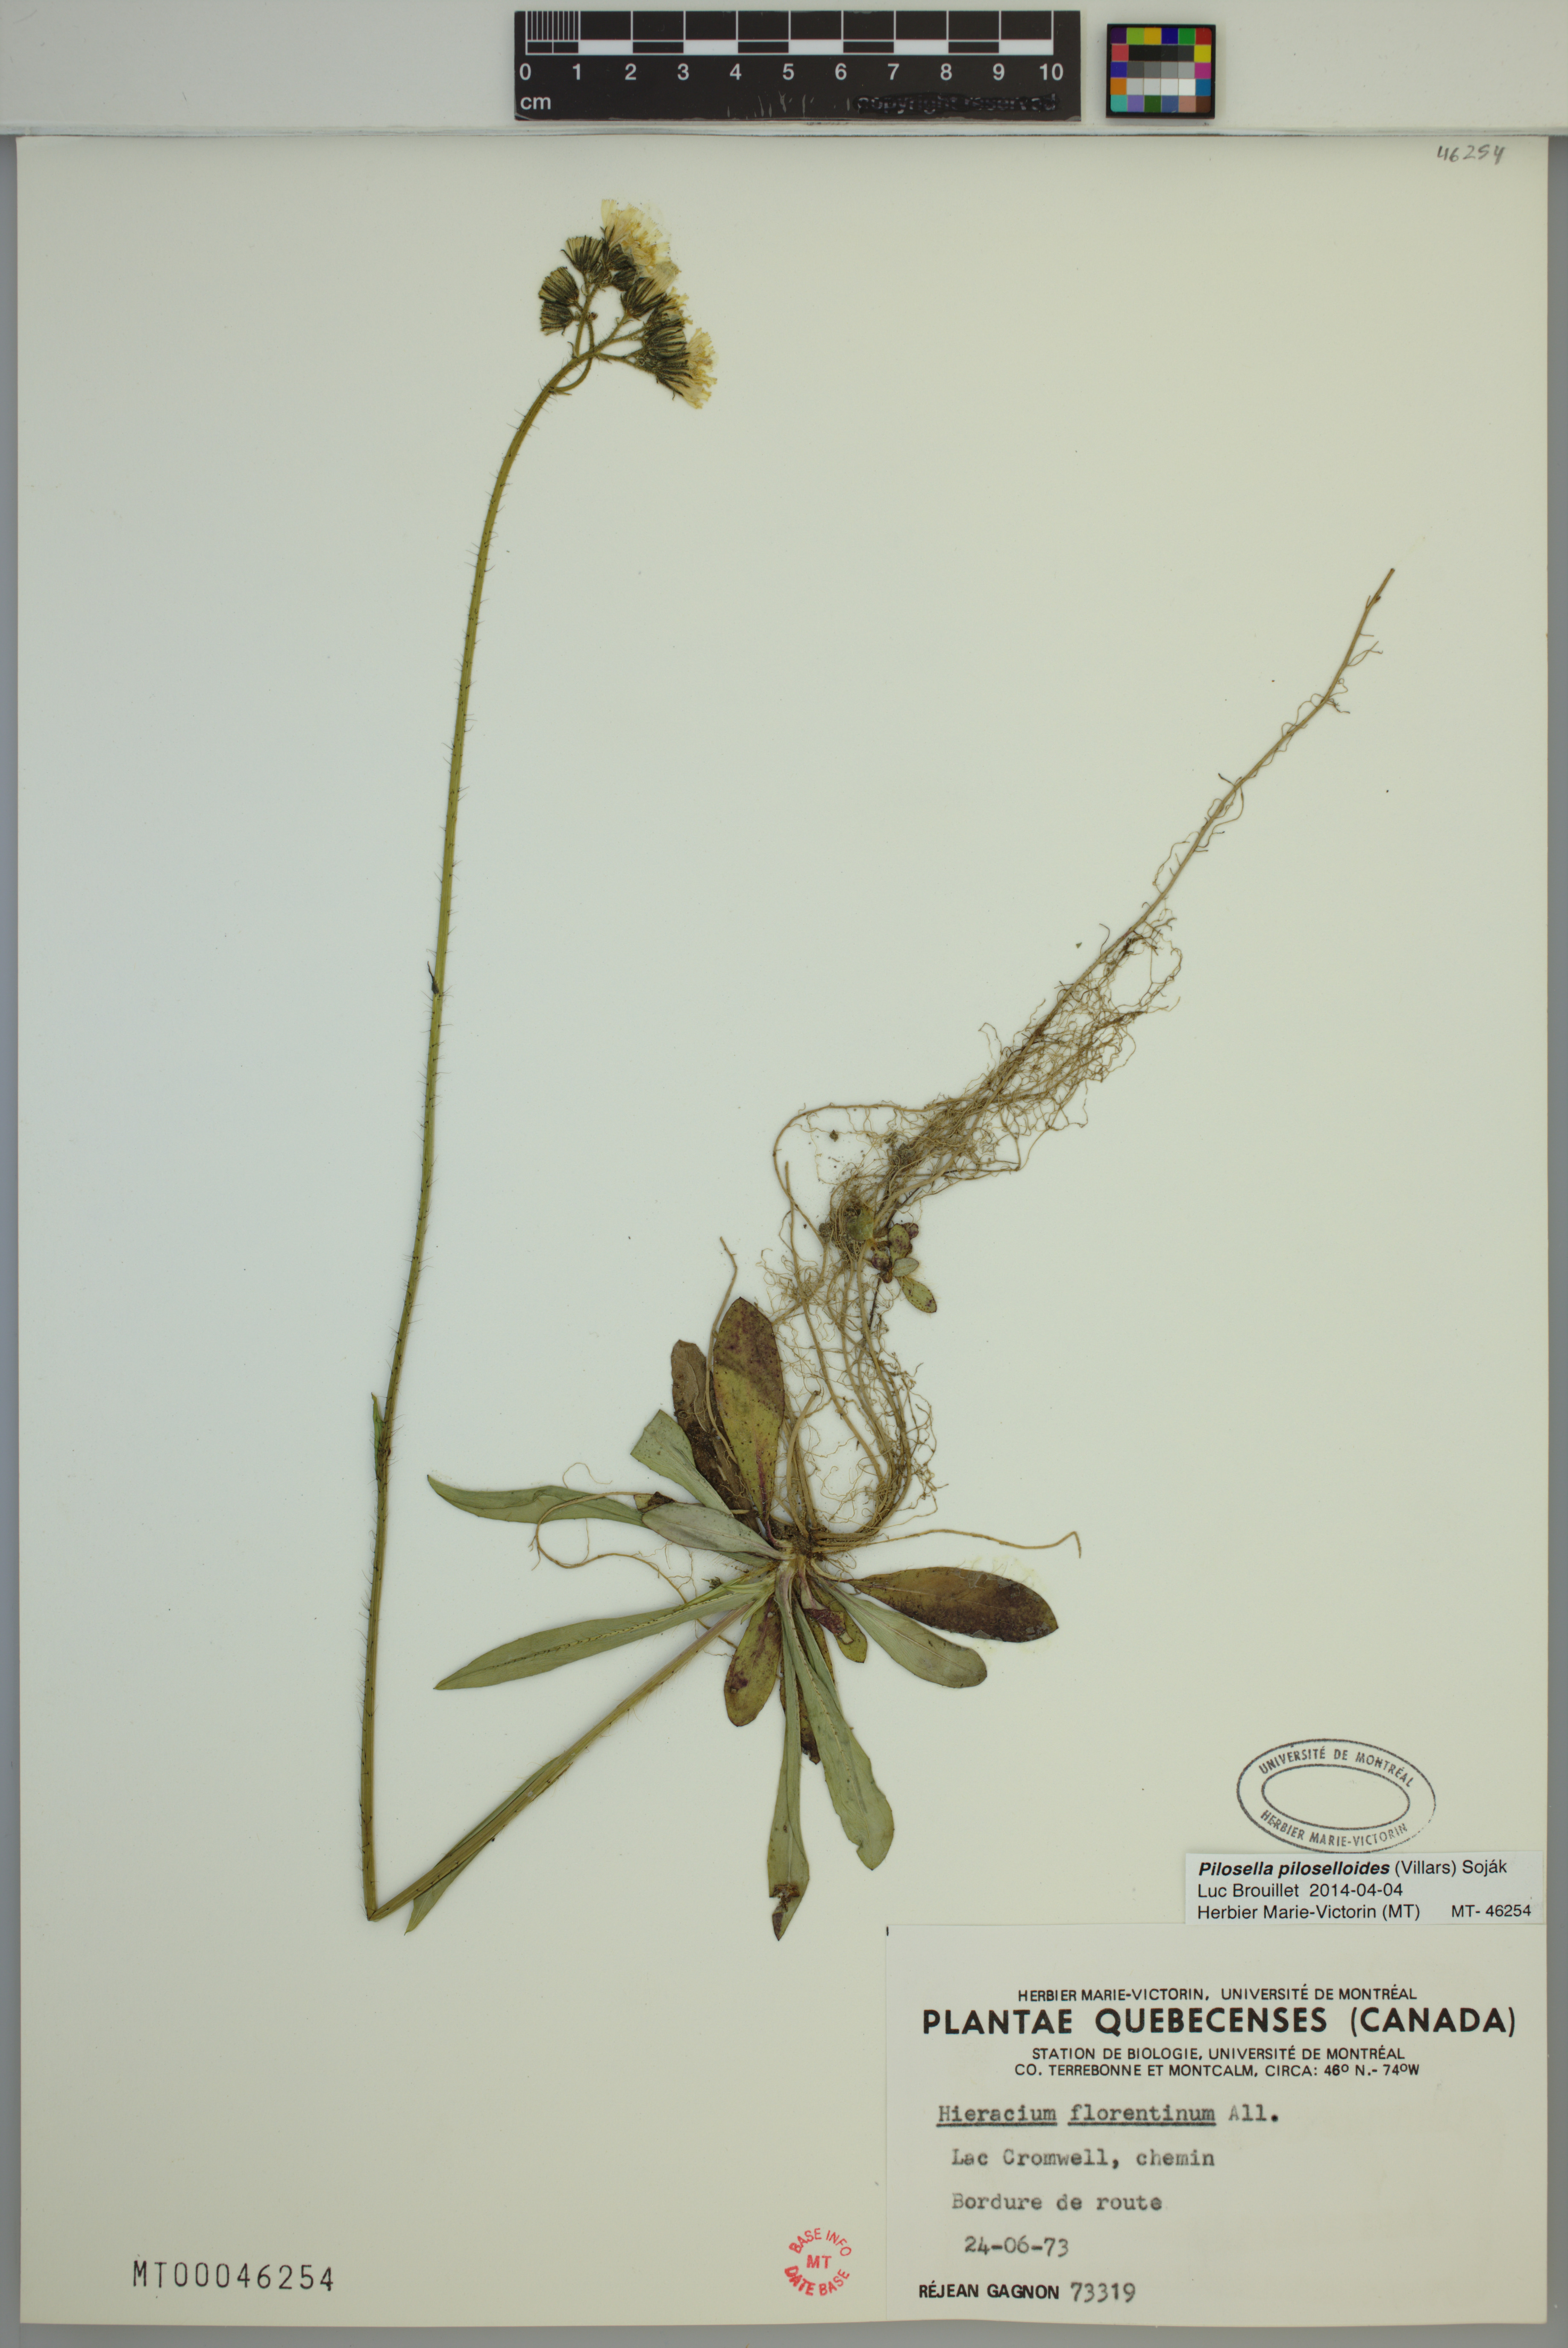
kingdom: Plantae
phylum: Tracheophyta
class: Magnoliopsida
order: Asterales
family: Asteraceae
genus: Pilosella
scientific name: Pilosella piloselloides
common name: Glaucous king-devil
